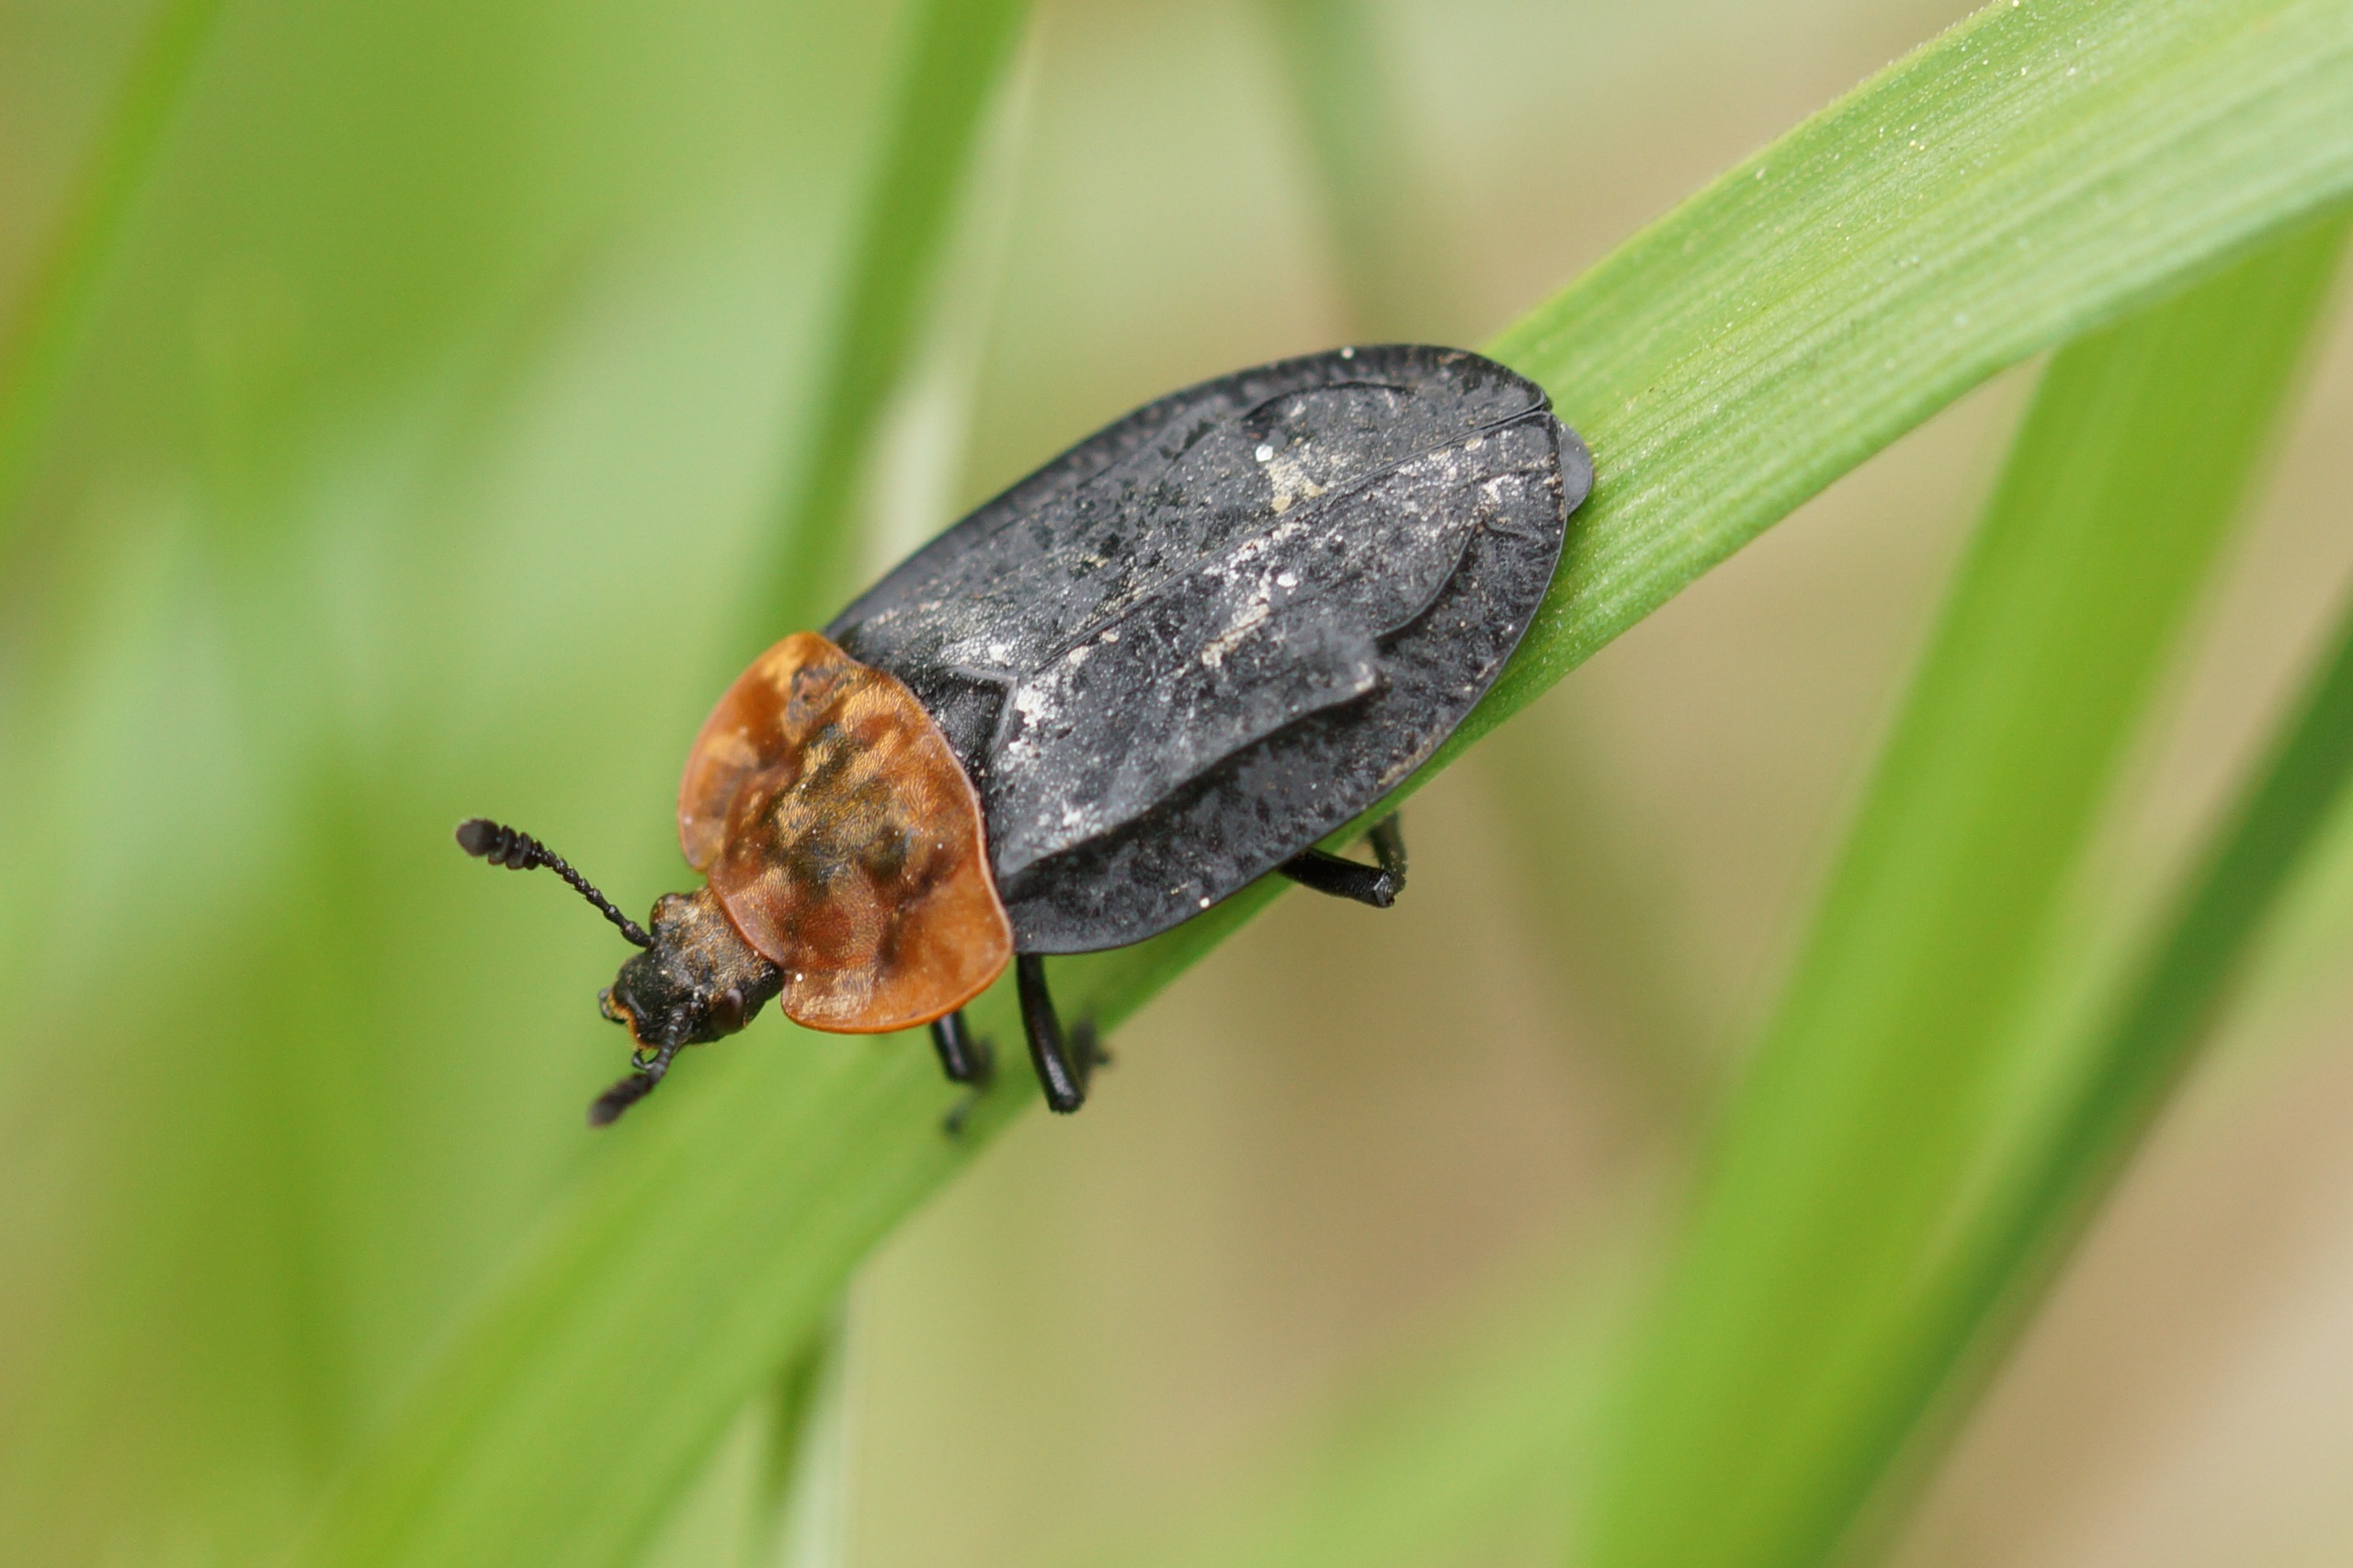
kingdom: Animalia
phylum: Arthropoda
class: Insecta
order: Coleoptera
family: Staphylinidae
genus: Oiceoptoma
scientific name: Oiceoptoma thoracicum
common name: Rødbrystet ådselbille
